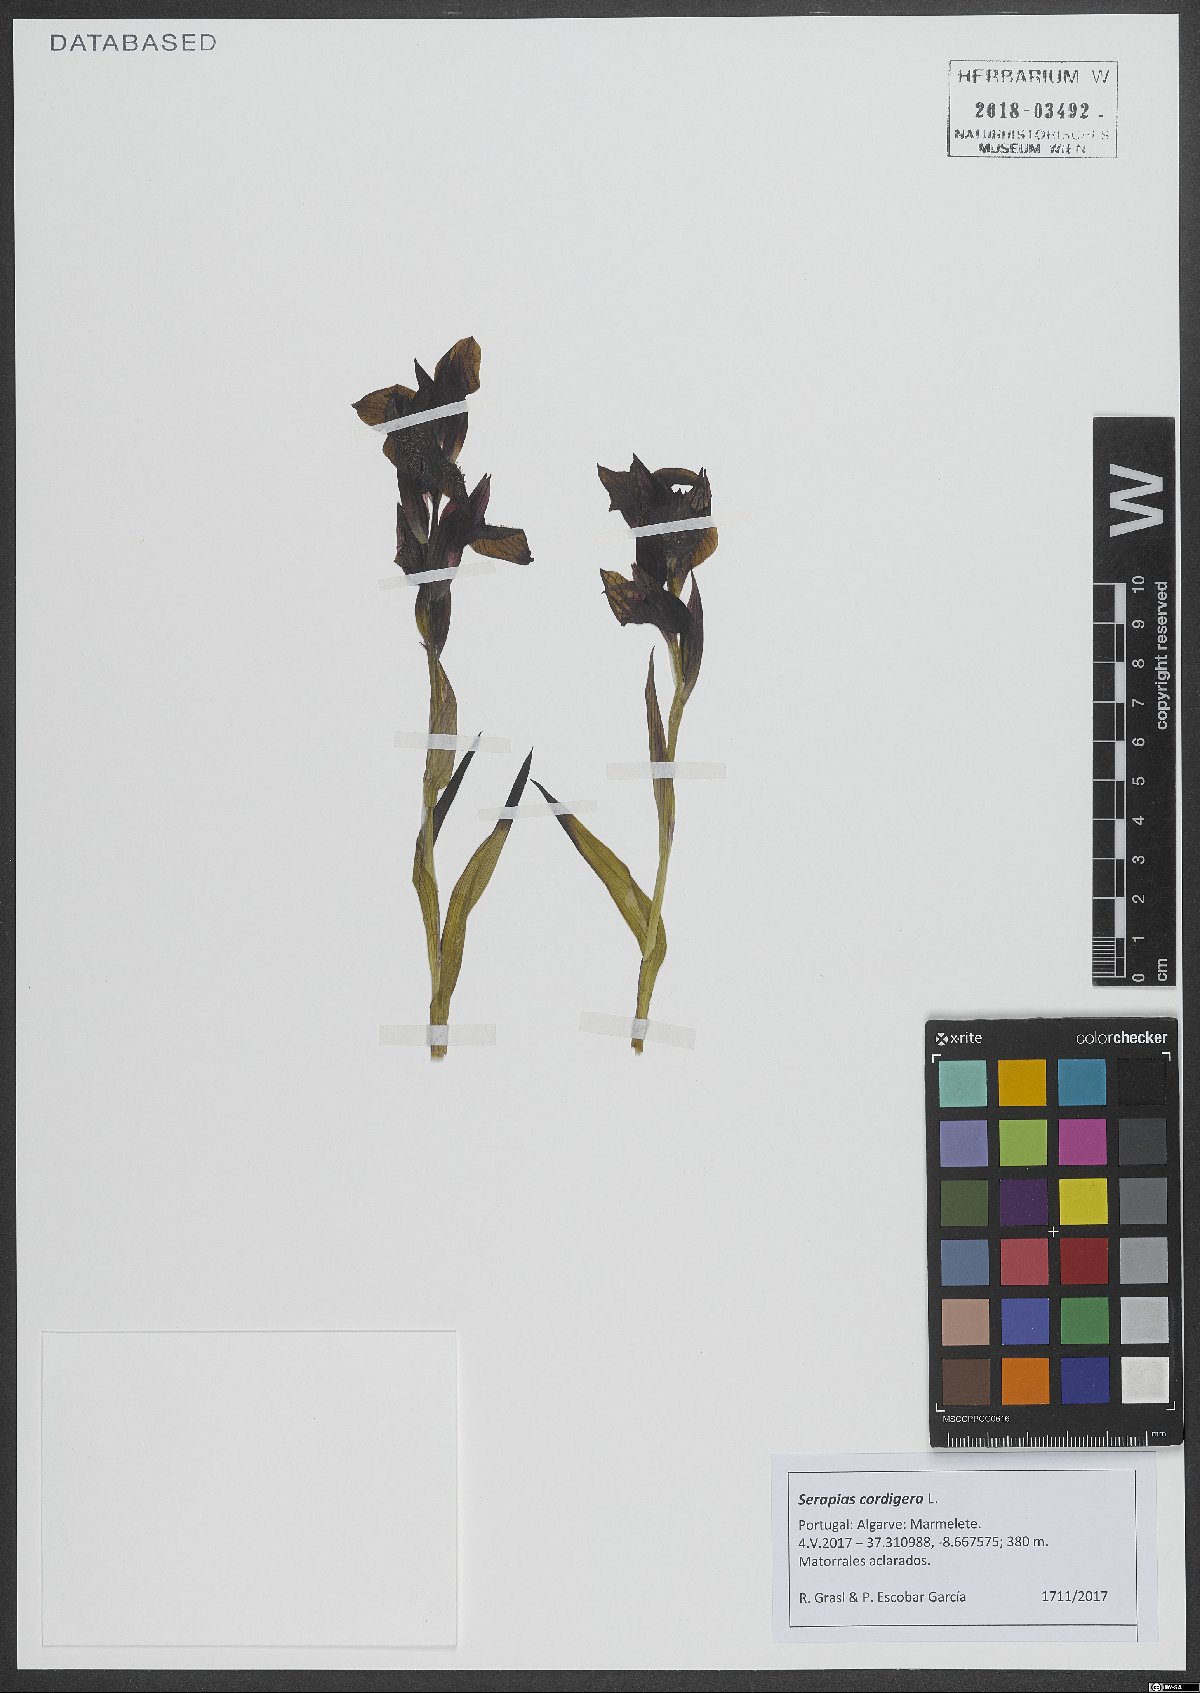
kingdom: Plantae
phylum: Tracheophyta
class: Liliopsida
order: Asparagales
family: Orchidaceae
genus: Serapias
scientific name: Serapias cordigera
